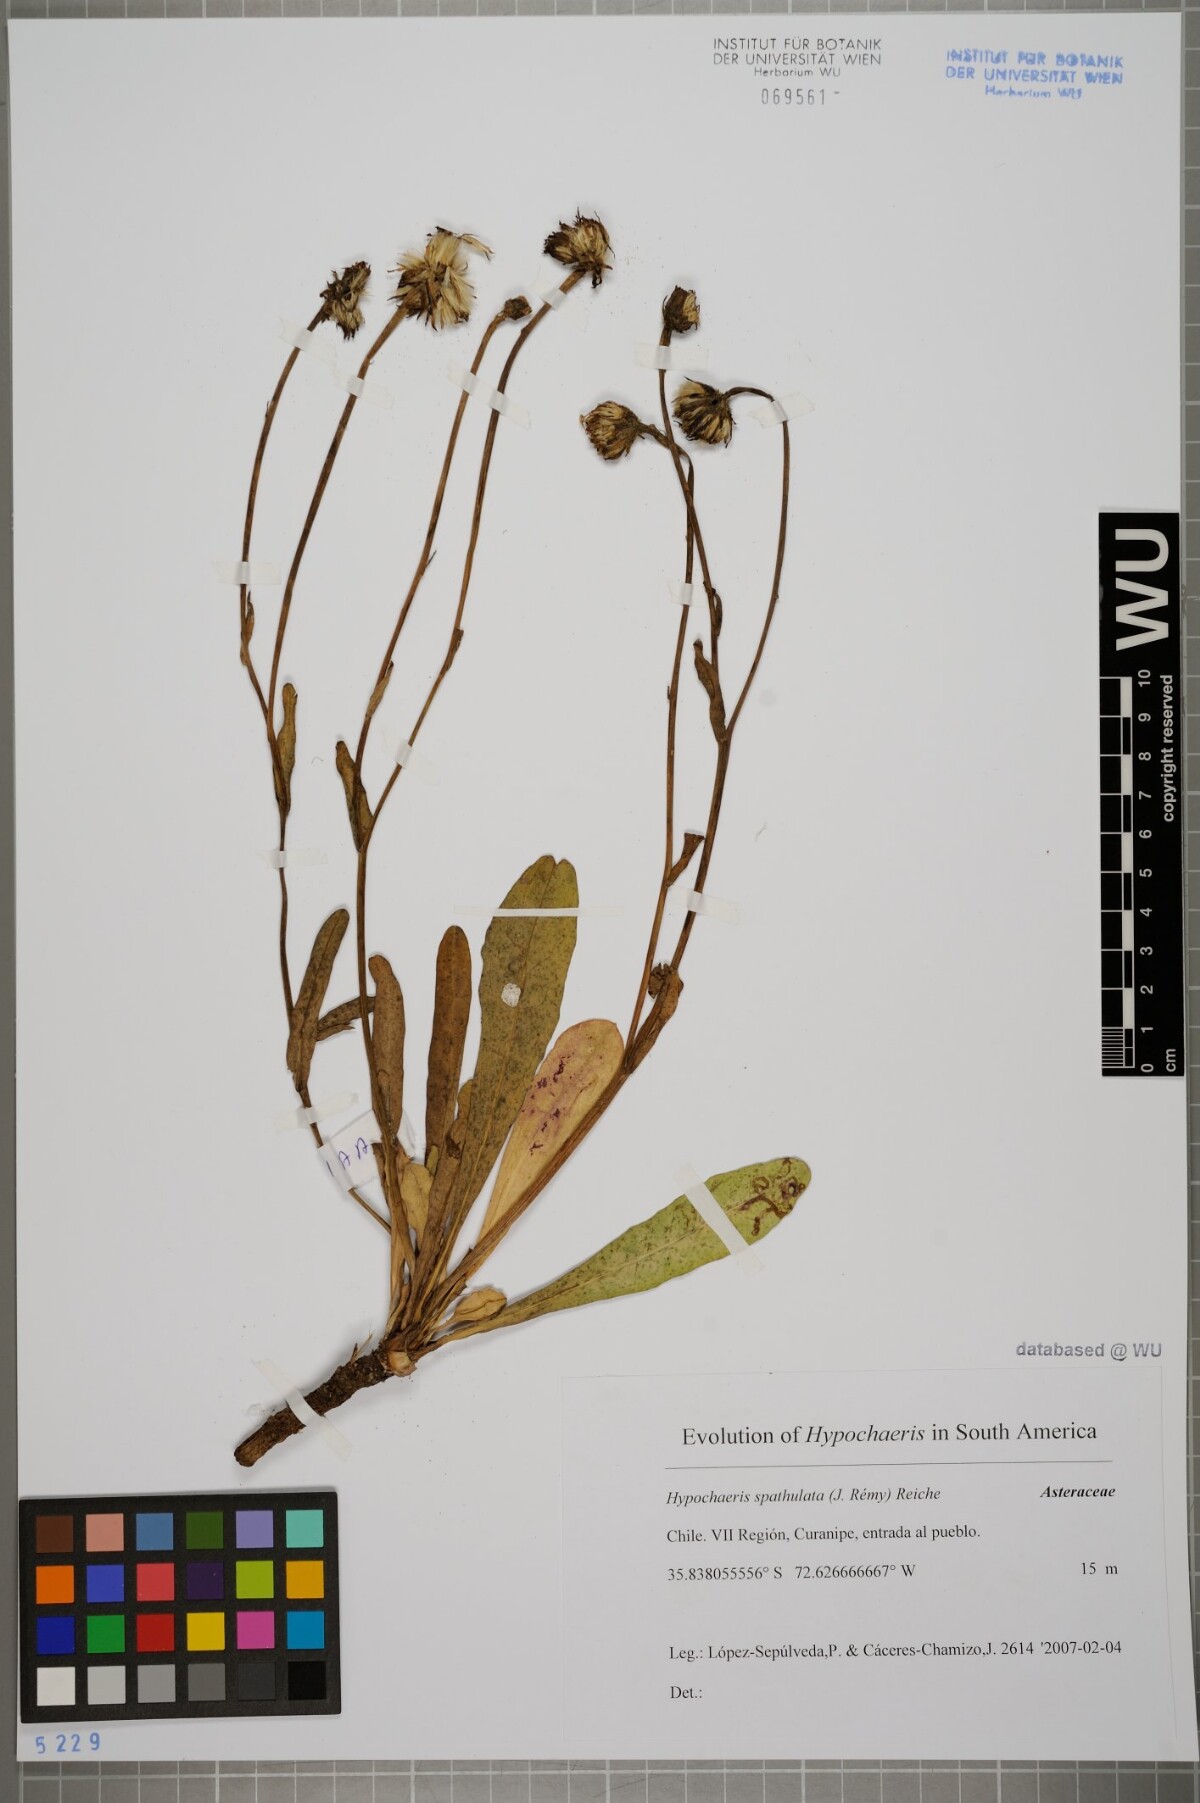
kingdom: Plantae
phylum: Tracheophyta
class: Magnoliopsida
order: Asterales
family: Asteraceae
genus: Hypochaeris
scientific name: Hypochaeris spathulata
